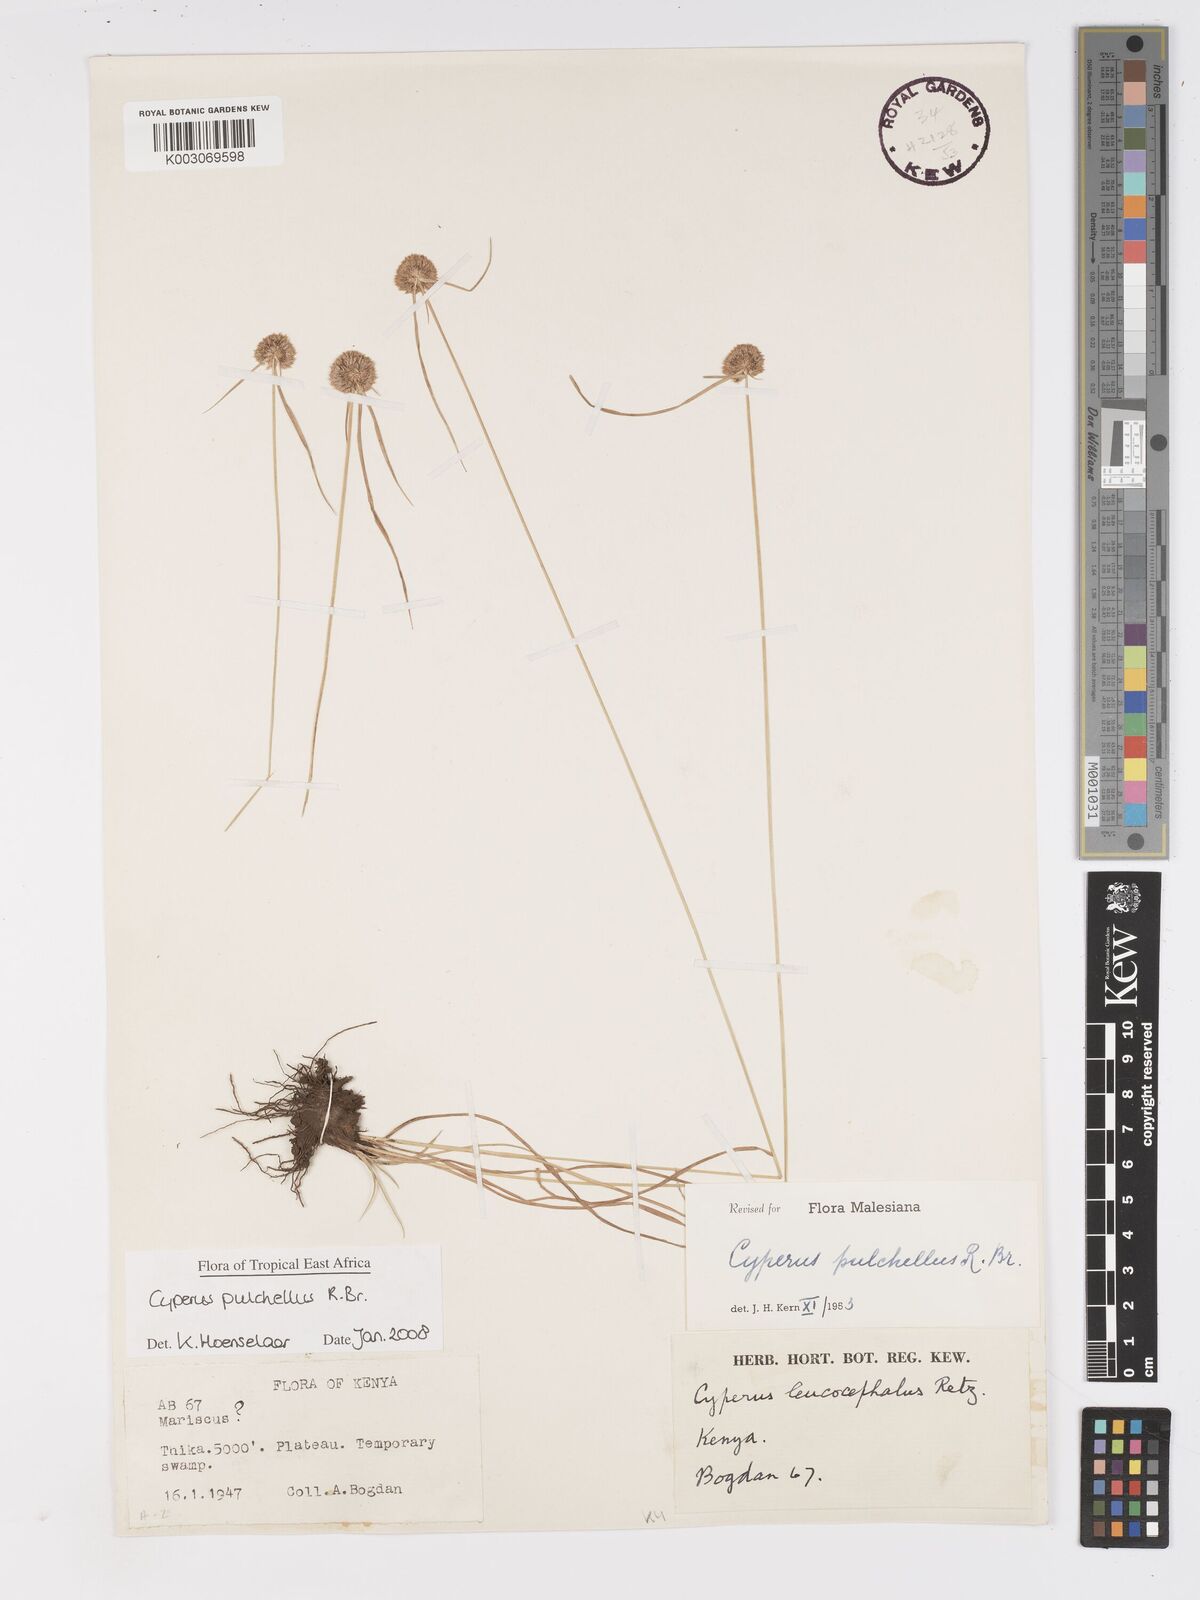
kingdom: Plantae
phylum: Tracheophyta
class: Liliopsida
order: Poales
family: Cyperaceae
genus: Cyperus
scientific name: Cyperus pulchellus
